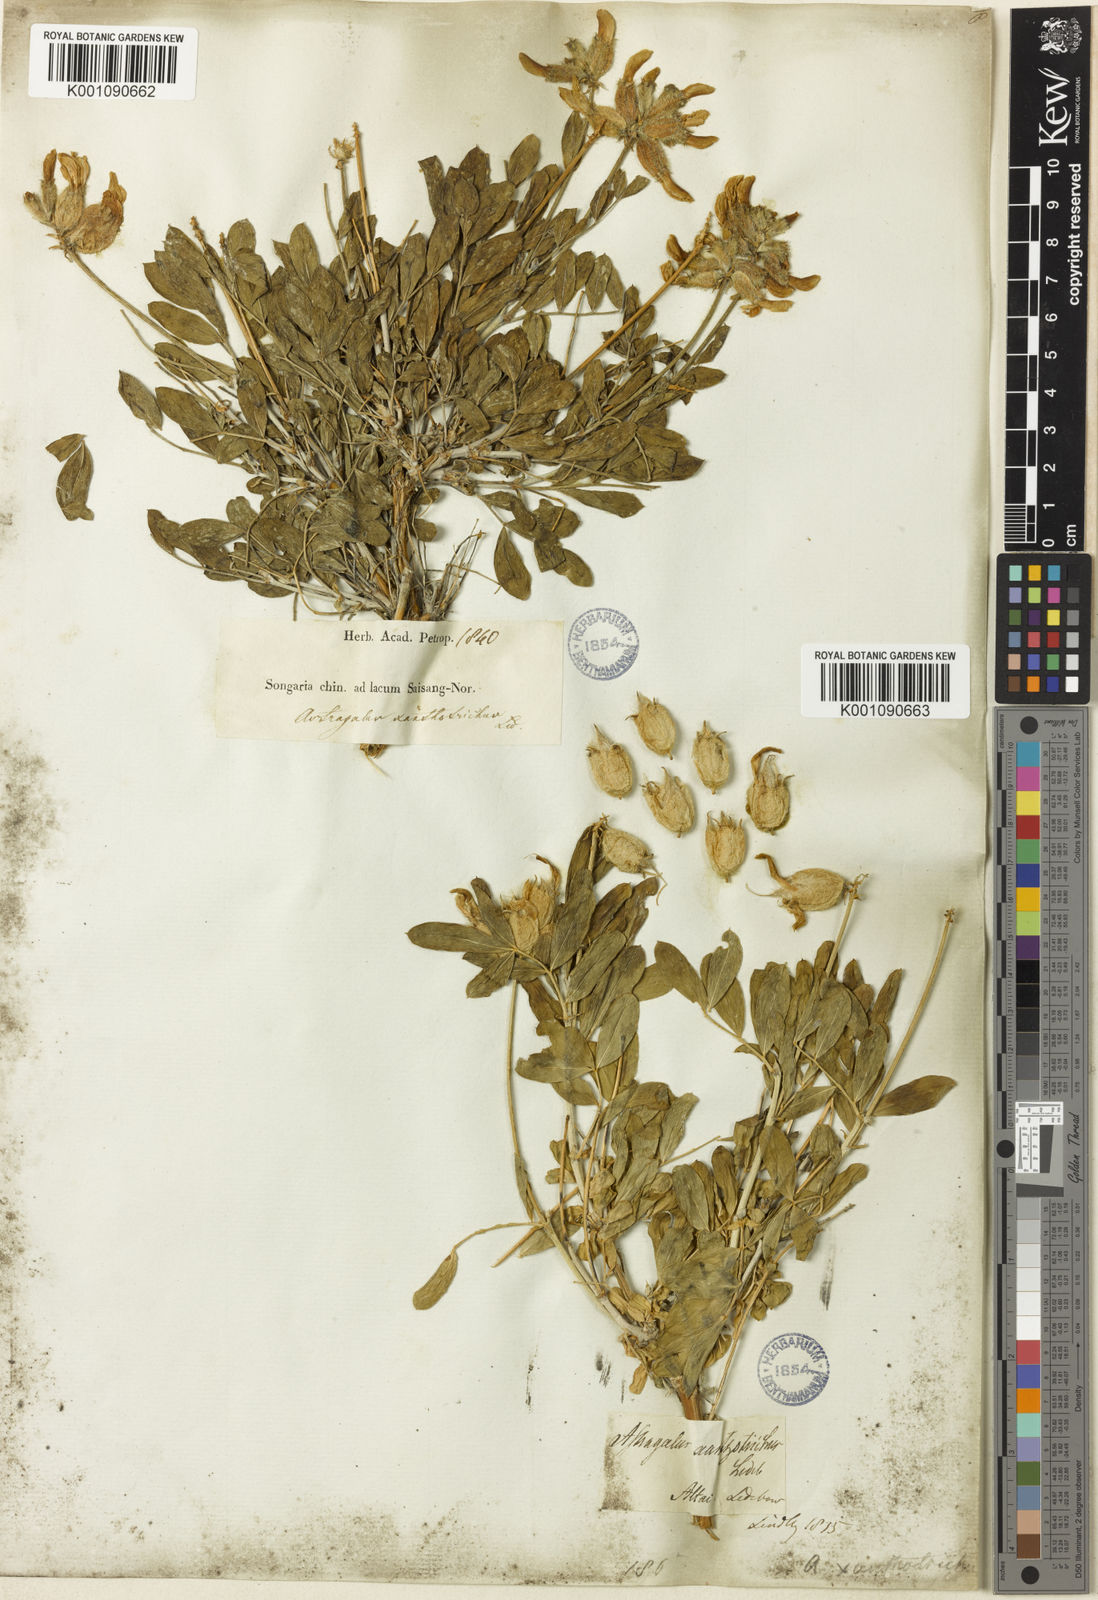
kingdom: Plantae
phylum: Tracheophyta
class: Magnoliopsida
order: Fabales
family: Fabaceae
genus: Astragalus
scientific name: Astragalus
